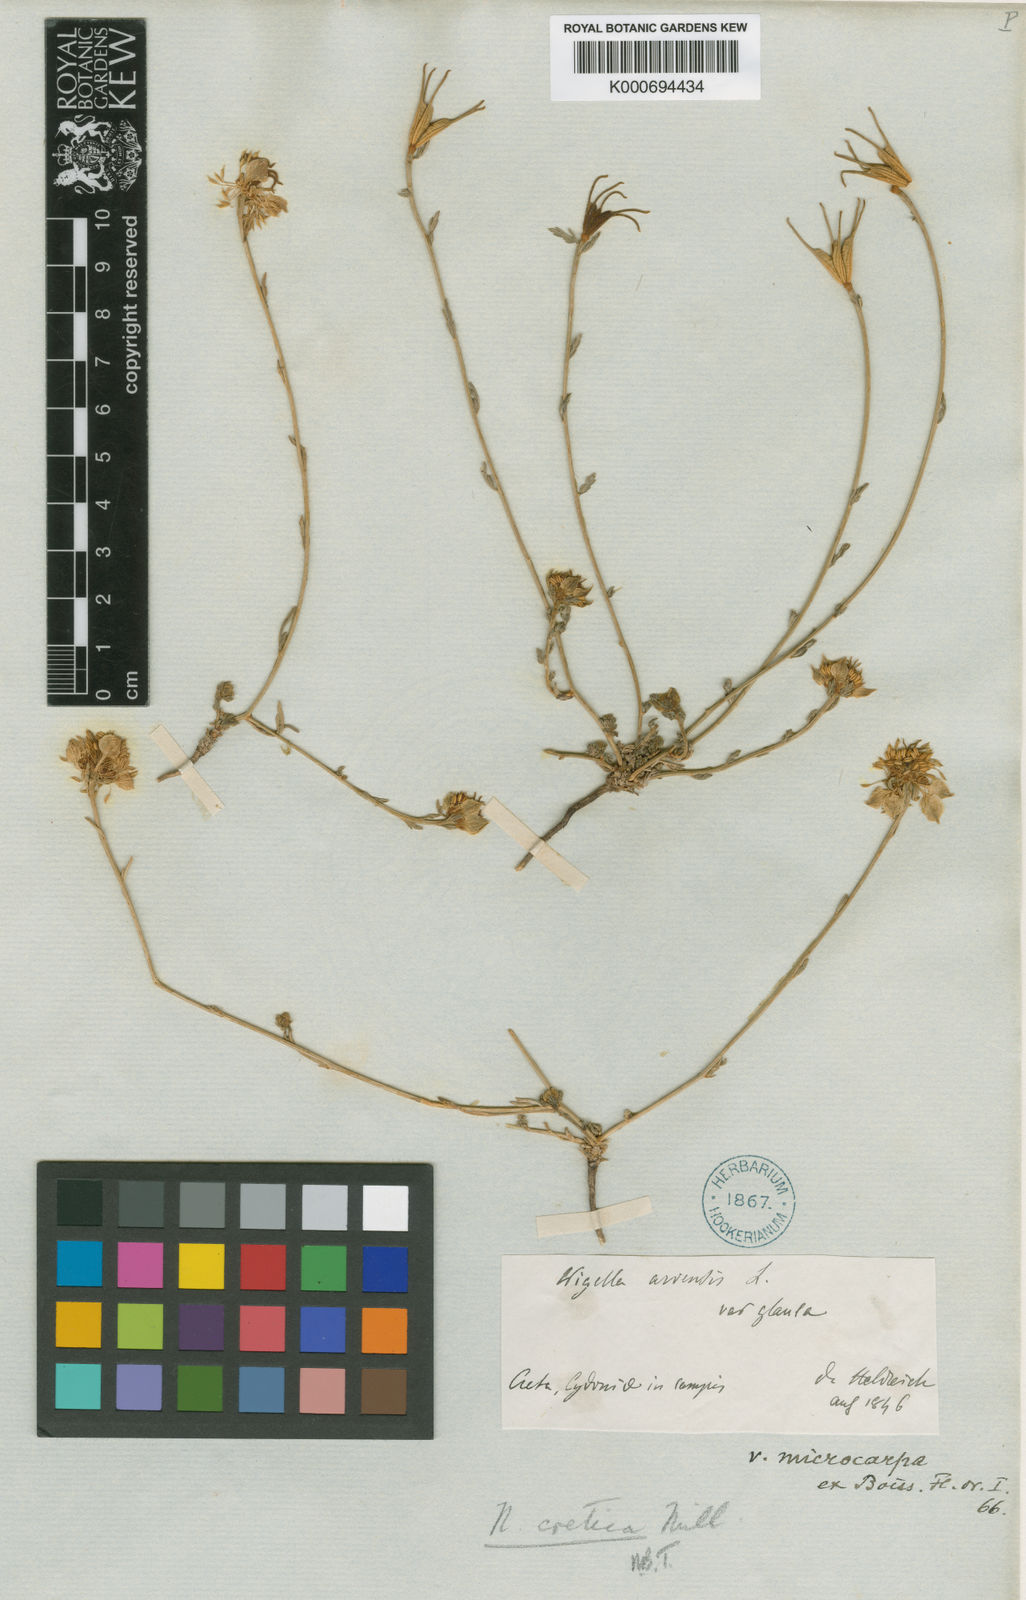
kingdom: Plantae
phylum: Tracheophyta
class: Magnoliopsida
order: Ranunculales
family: Ranunculaceae
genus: Nigella
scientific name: Nigella arvensis
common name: Wild fennel-flower
